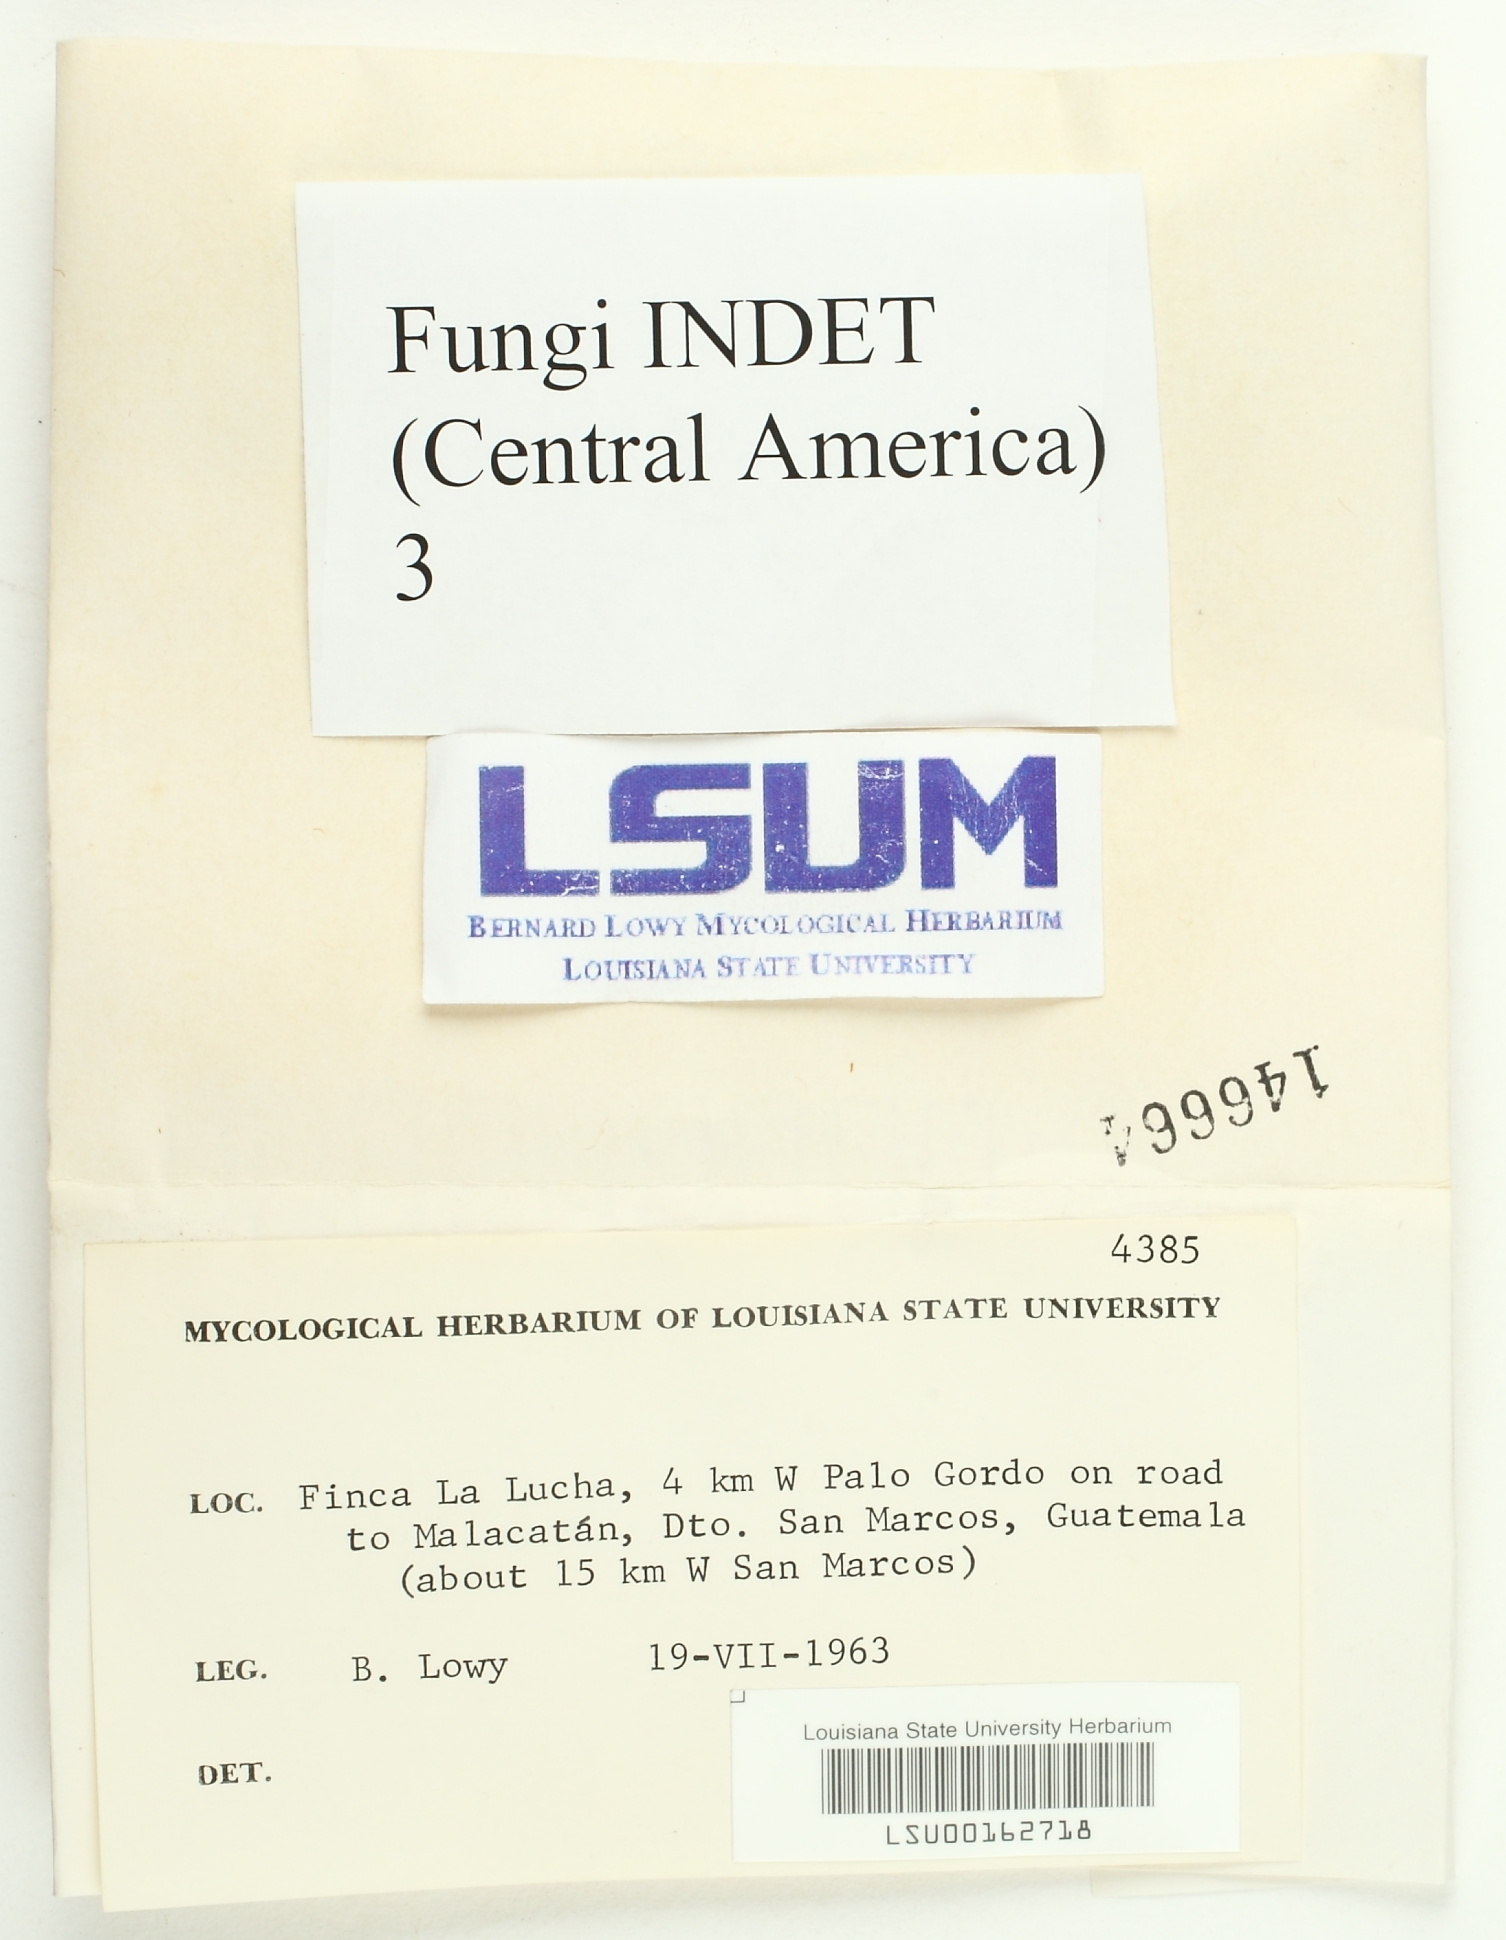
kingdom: Fungi
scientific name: Fungi
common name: Fungi
